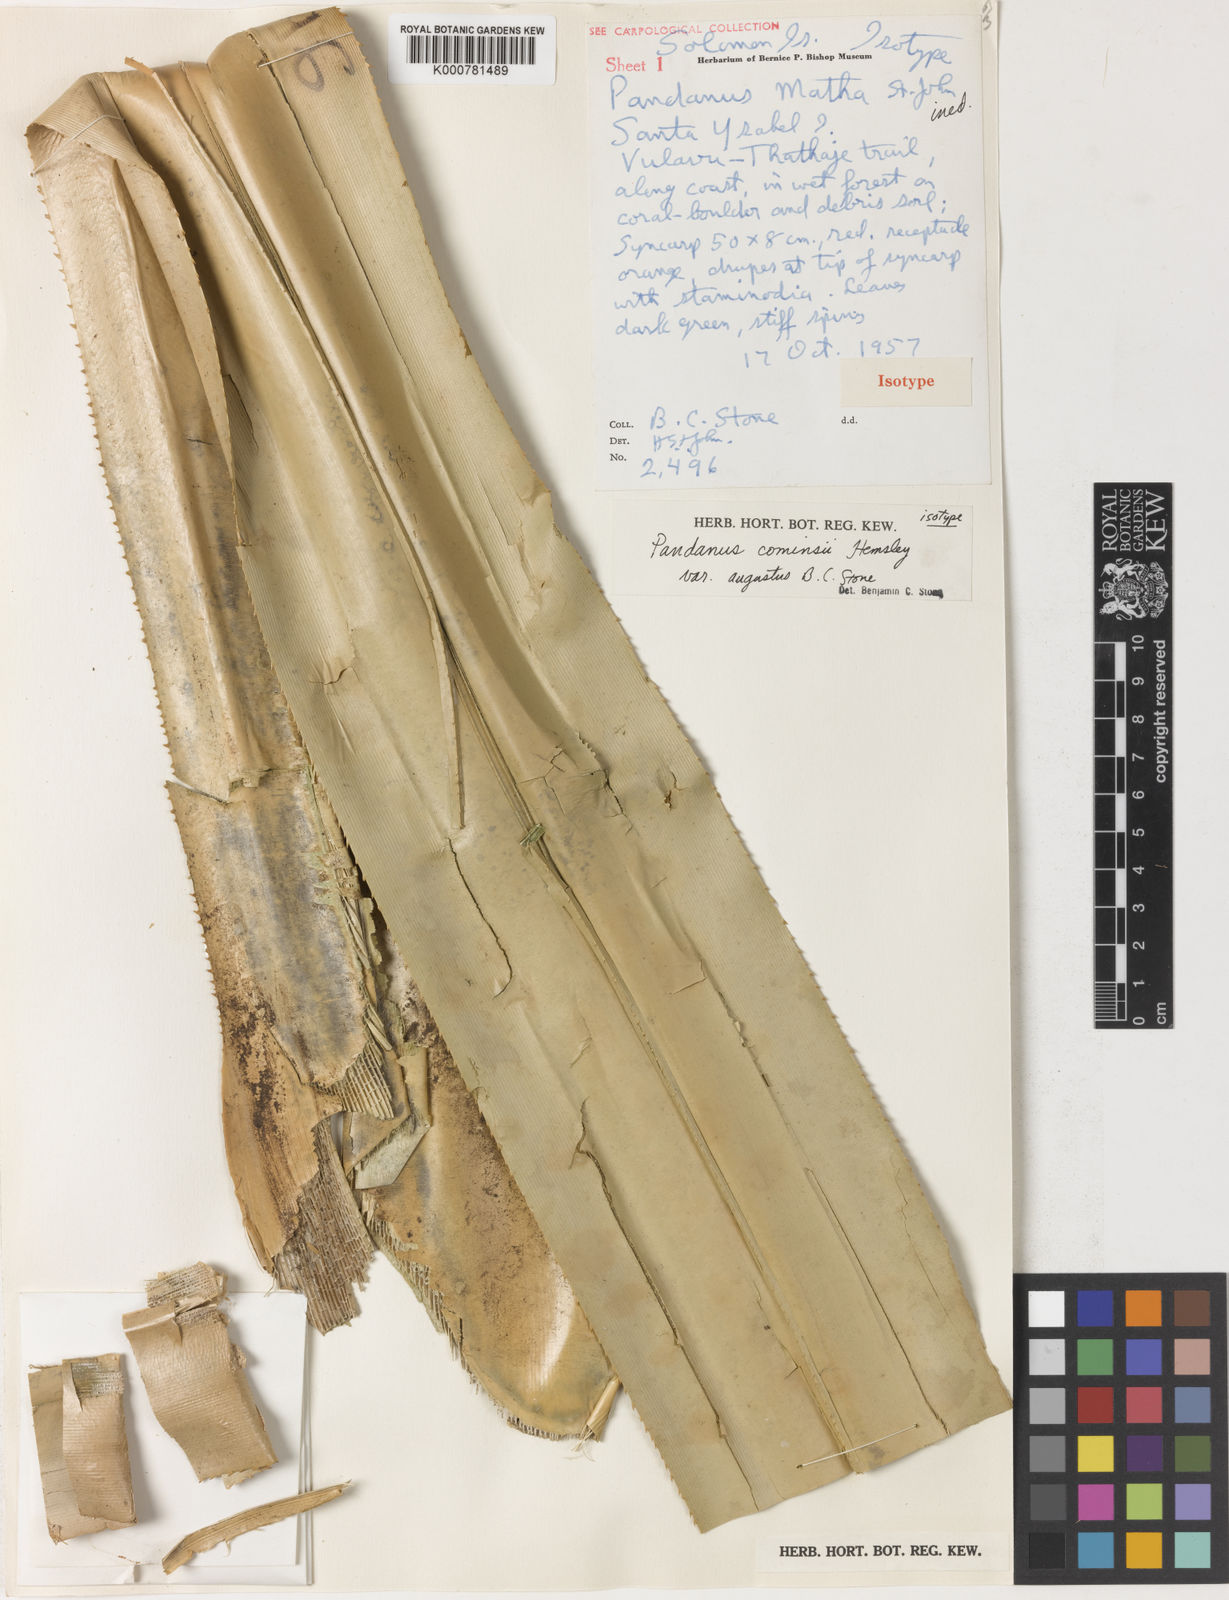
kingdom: Plantae
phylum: Tracheophyta
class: Liliopsida
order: Pandanales
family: Pandanaceae
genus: Pandanus
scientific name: Pandanus conoideus
